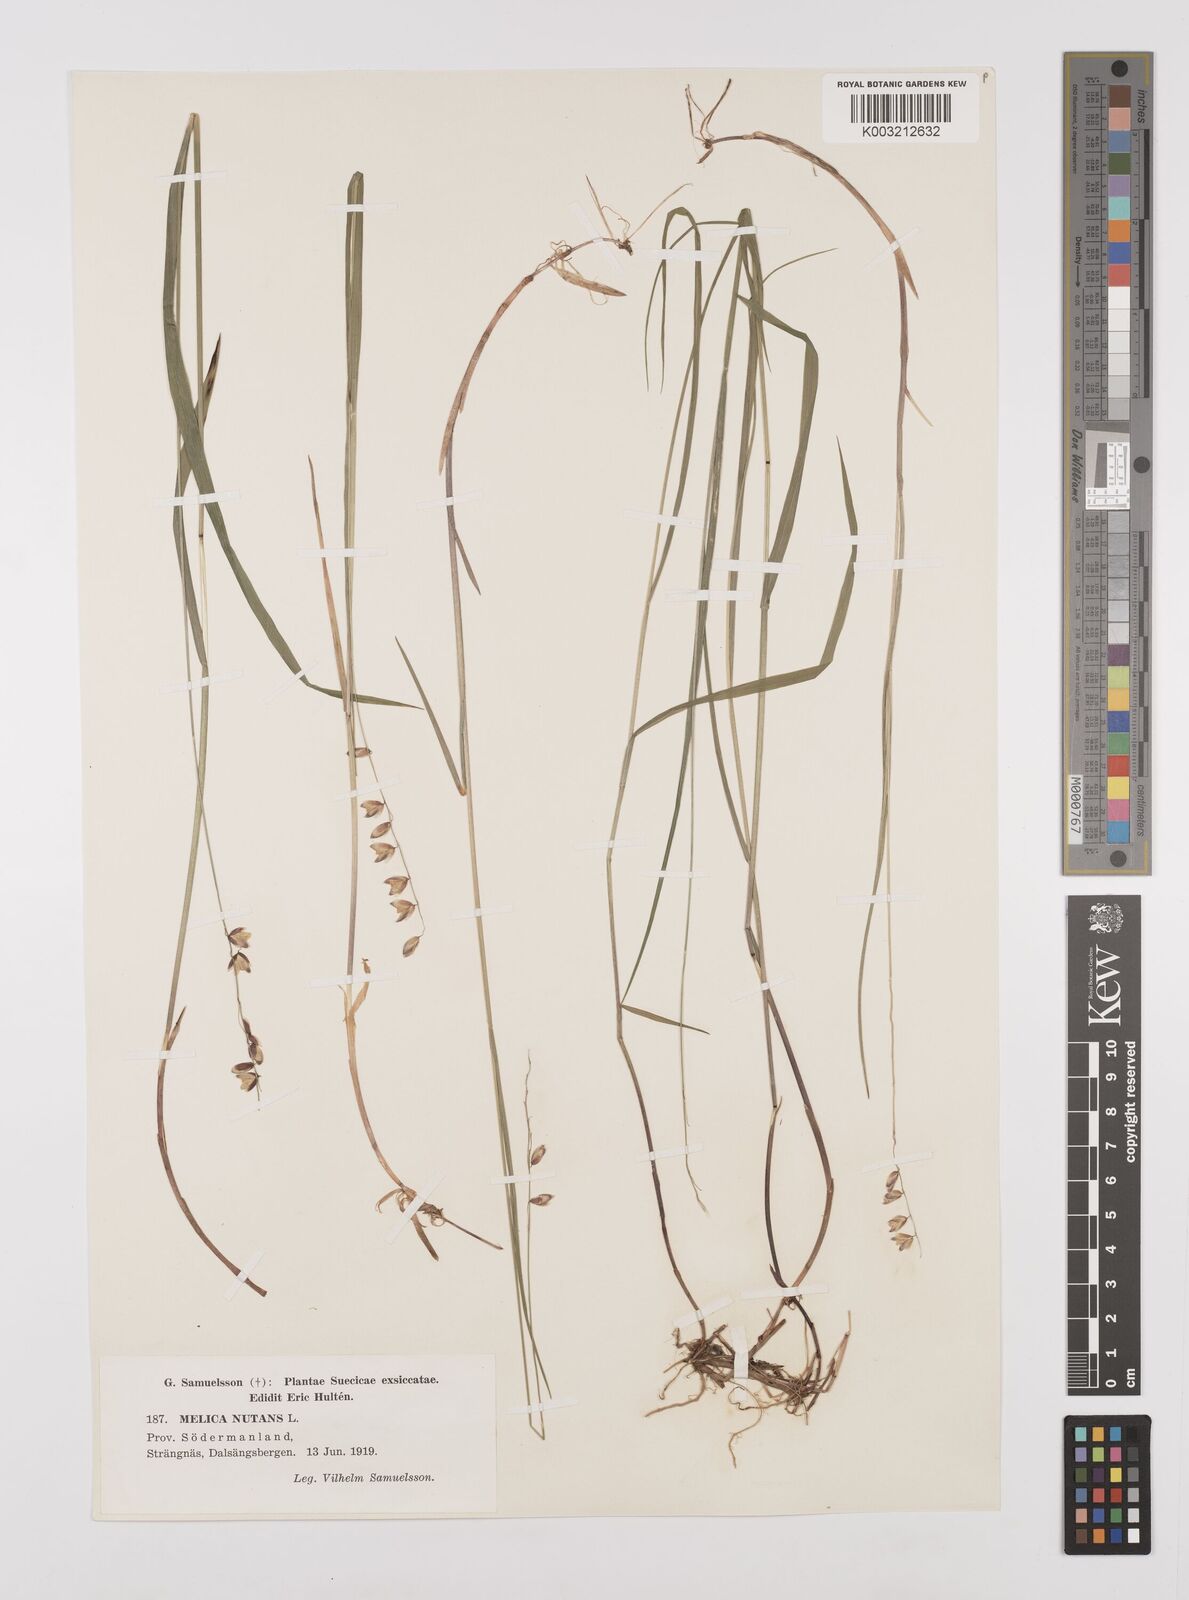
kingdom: Plantae
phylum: Tracheophyta
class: Liliopsida
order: Poales
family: Poaceae
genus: Melica
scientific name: Melica
